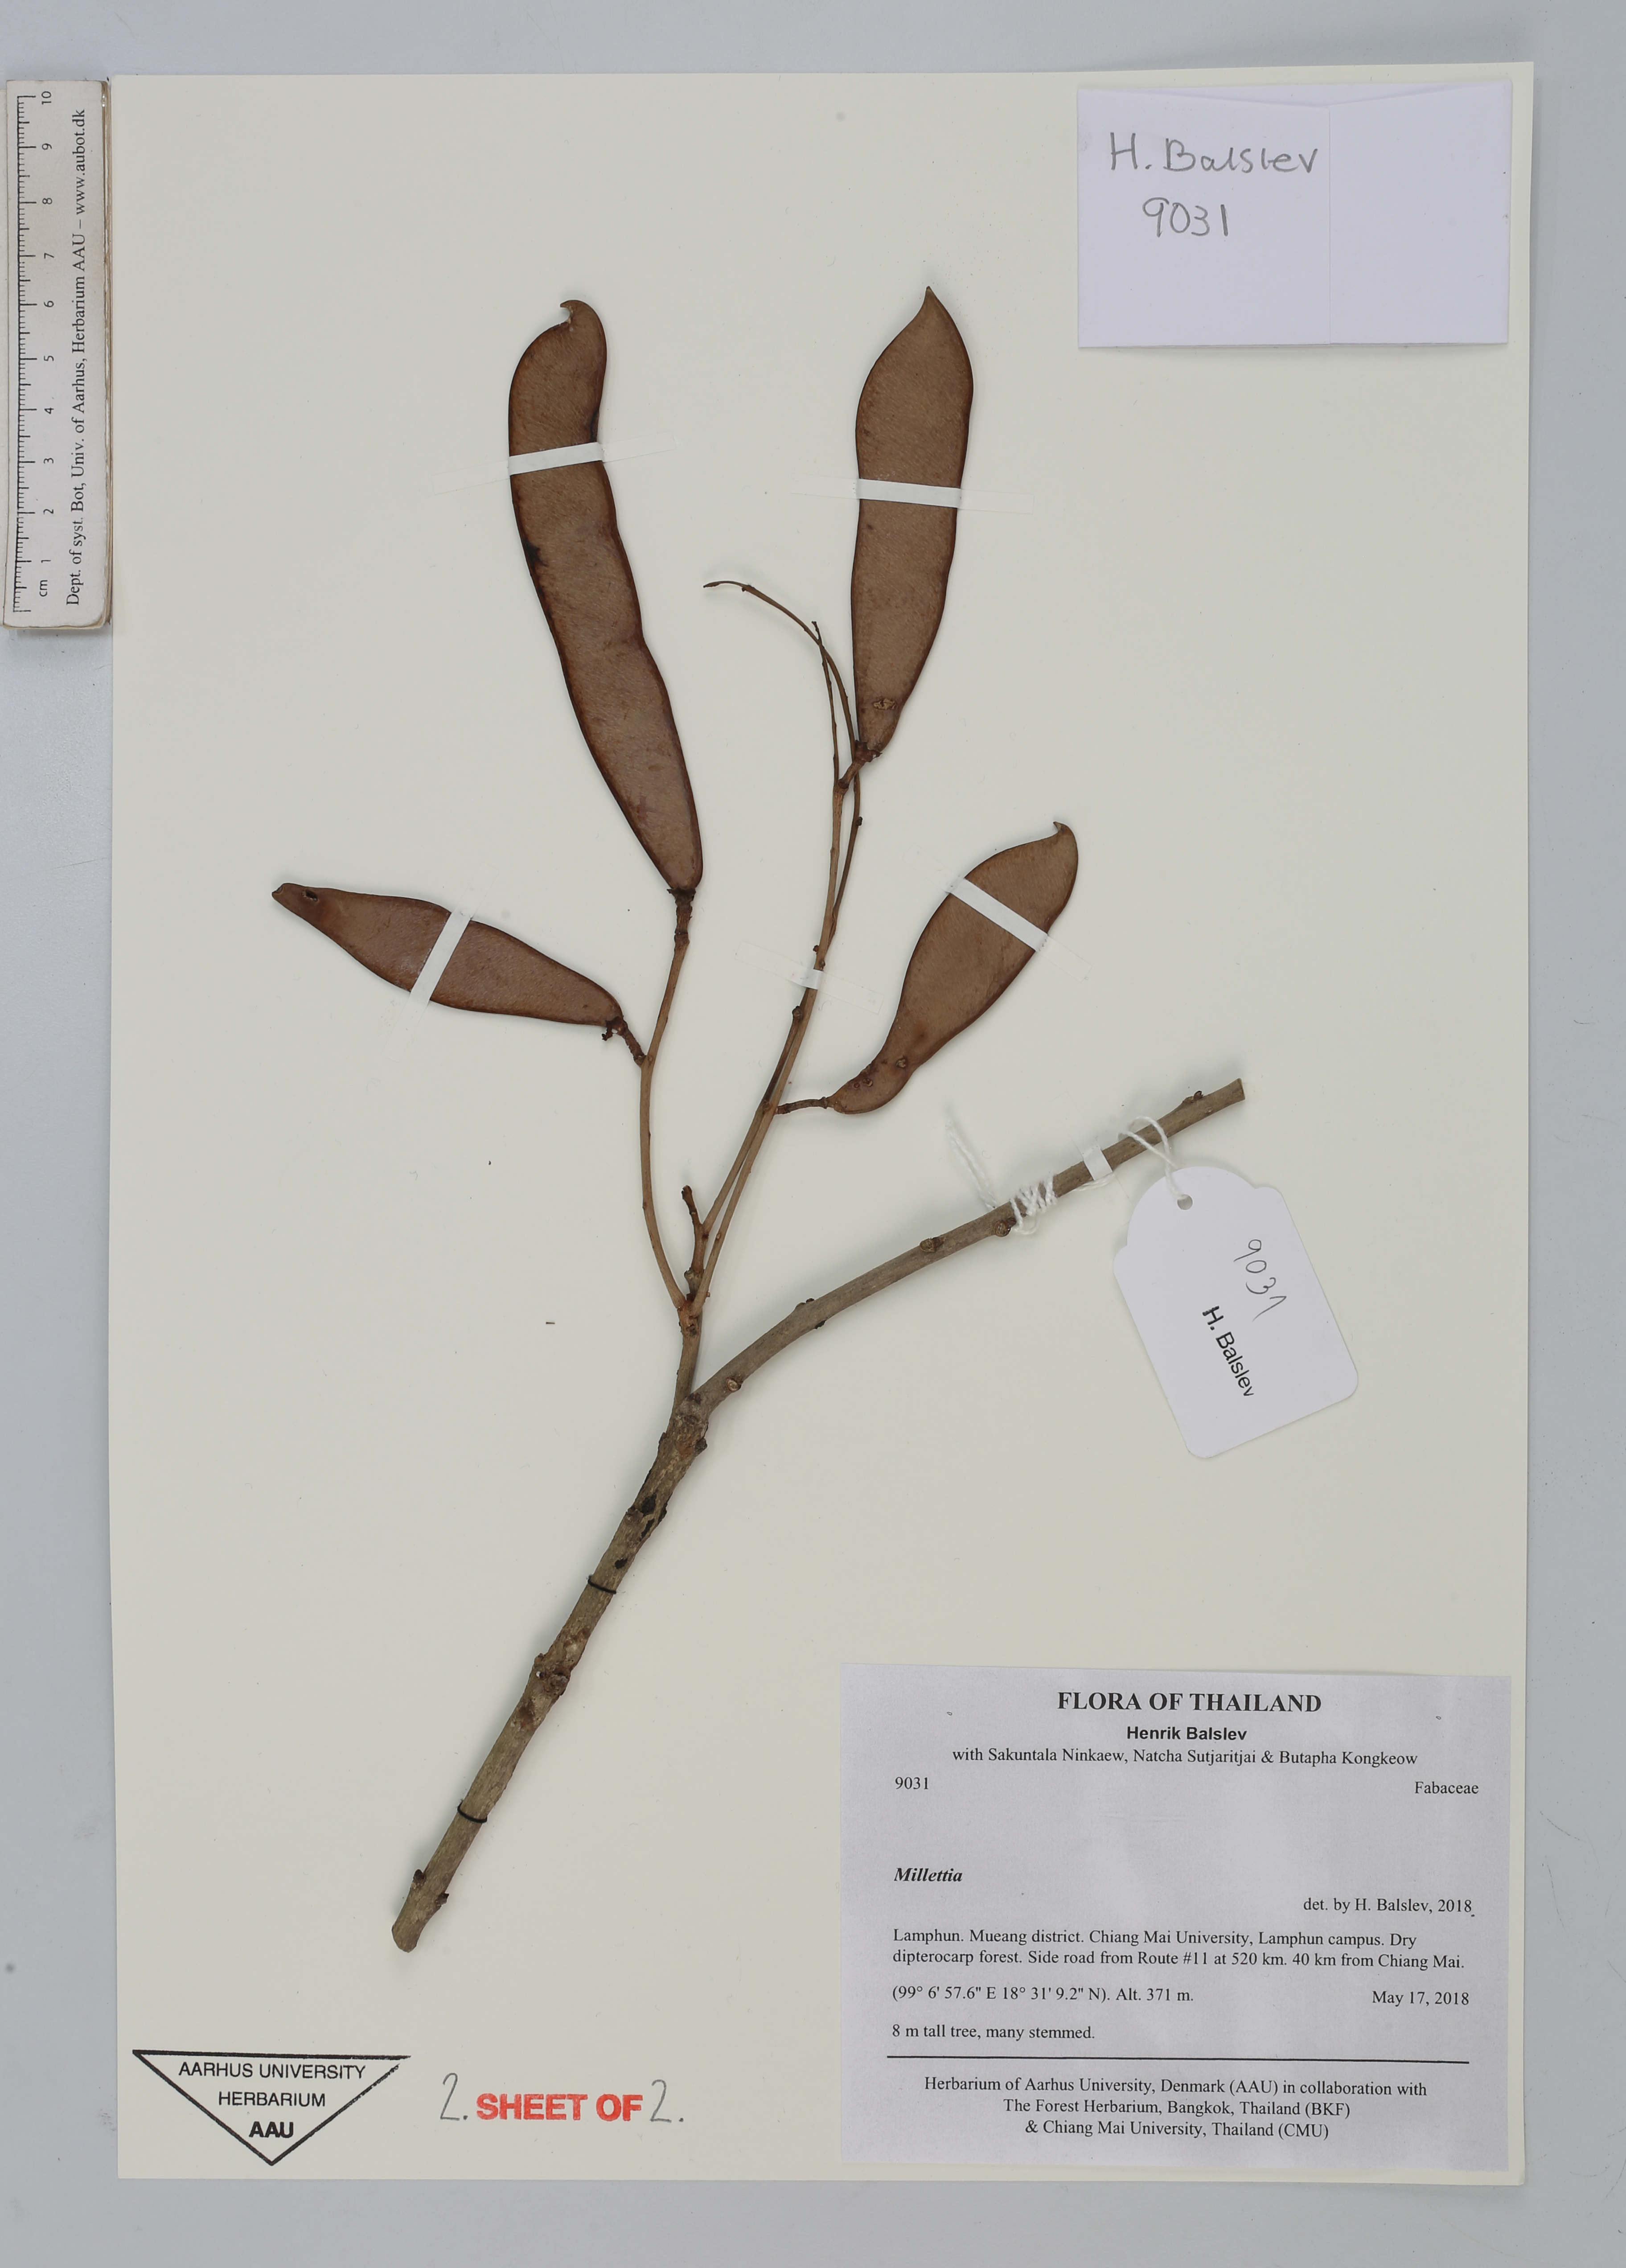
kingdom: Plantae
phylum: Tracheophyta
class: Magnoliopsida
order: Fabales
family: Fabaceae
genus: Millettia
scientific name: Millettia brandisiana
